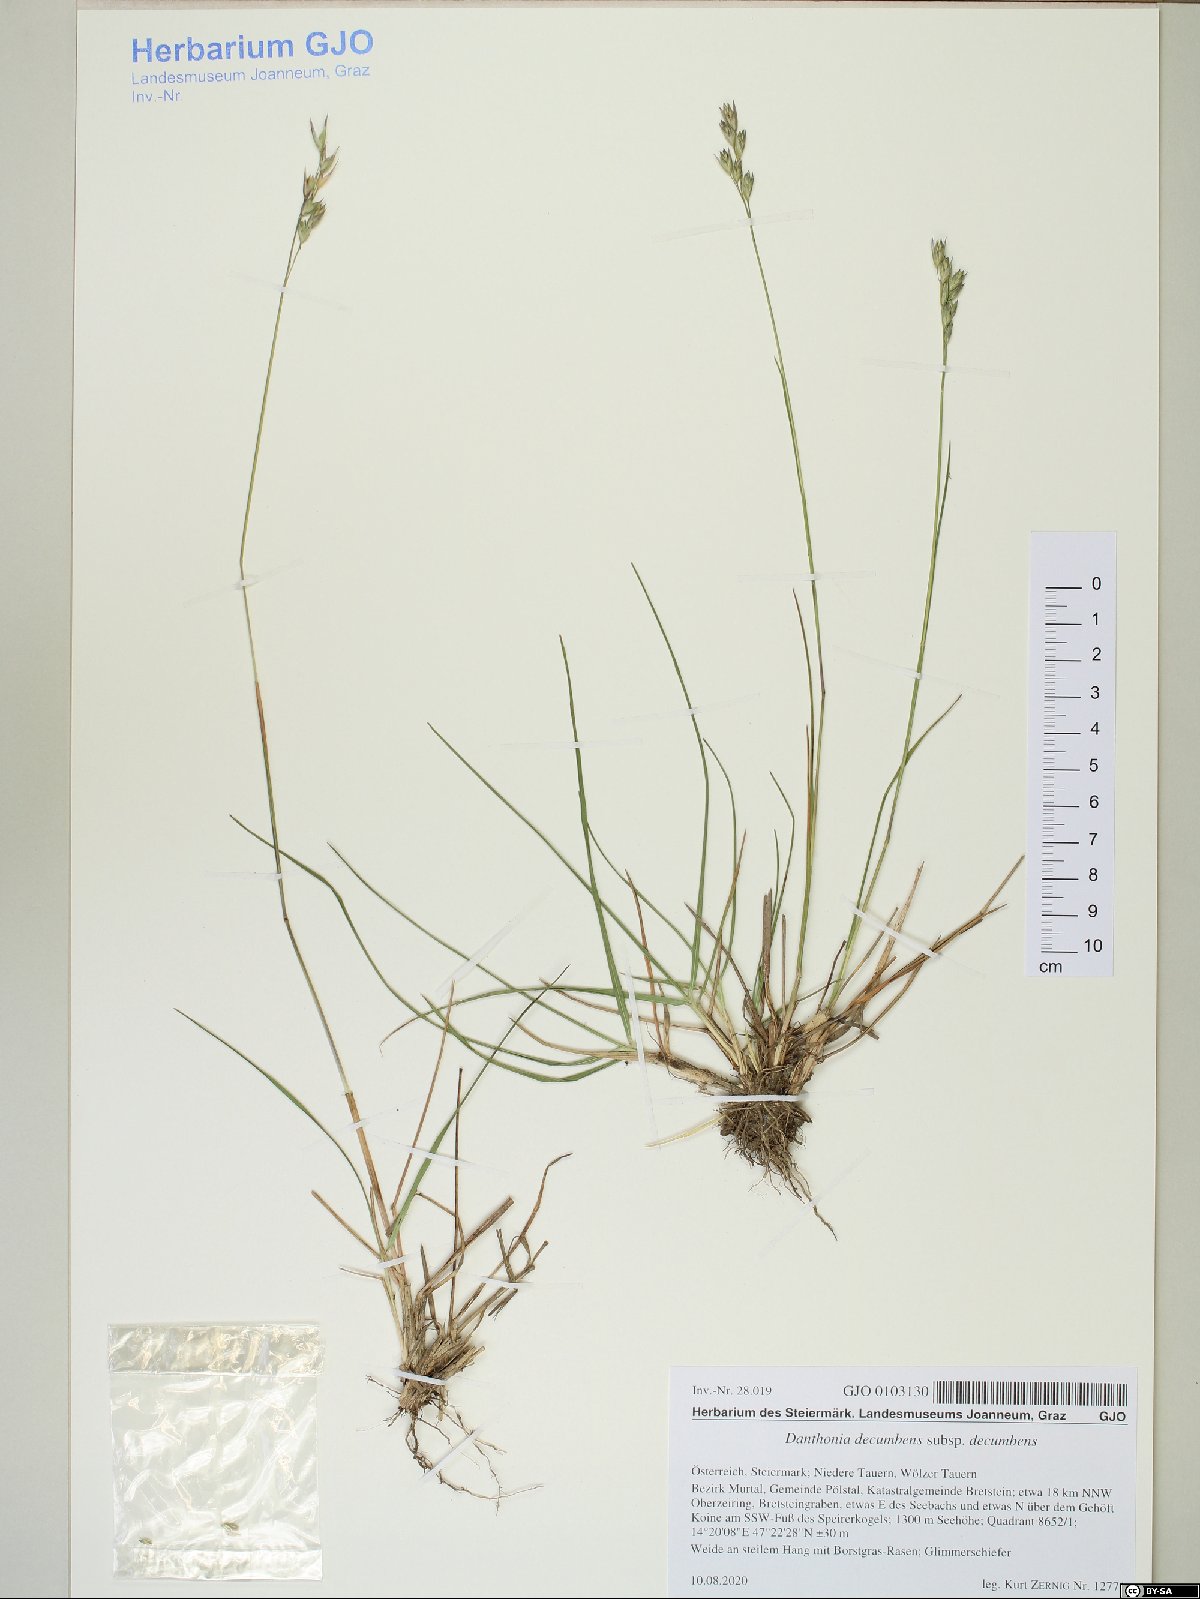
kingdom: Plantae
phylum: Tracheophyta
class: Liliopsida
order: Poales
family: Poaceae
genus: Calamagrostis
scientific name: Calamagrostis villosa
